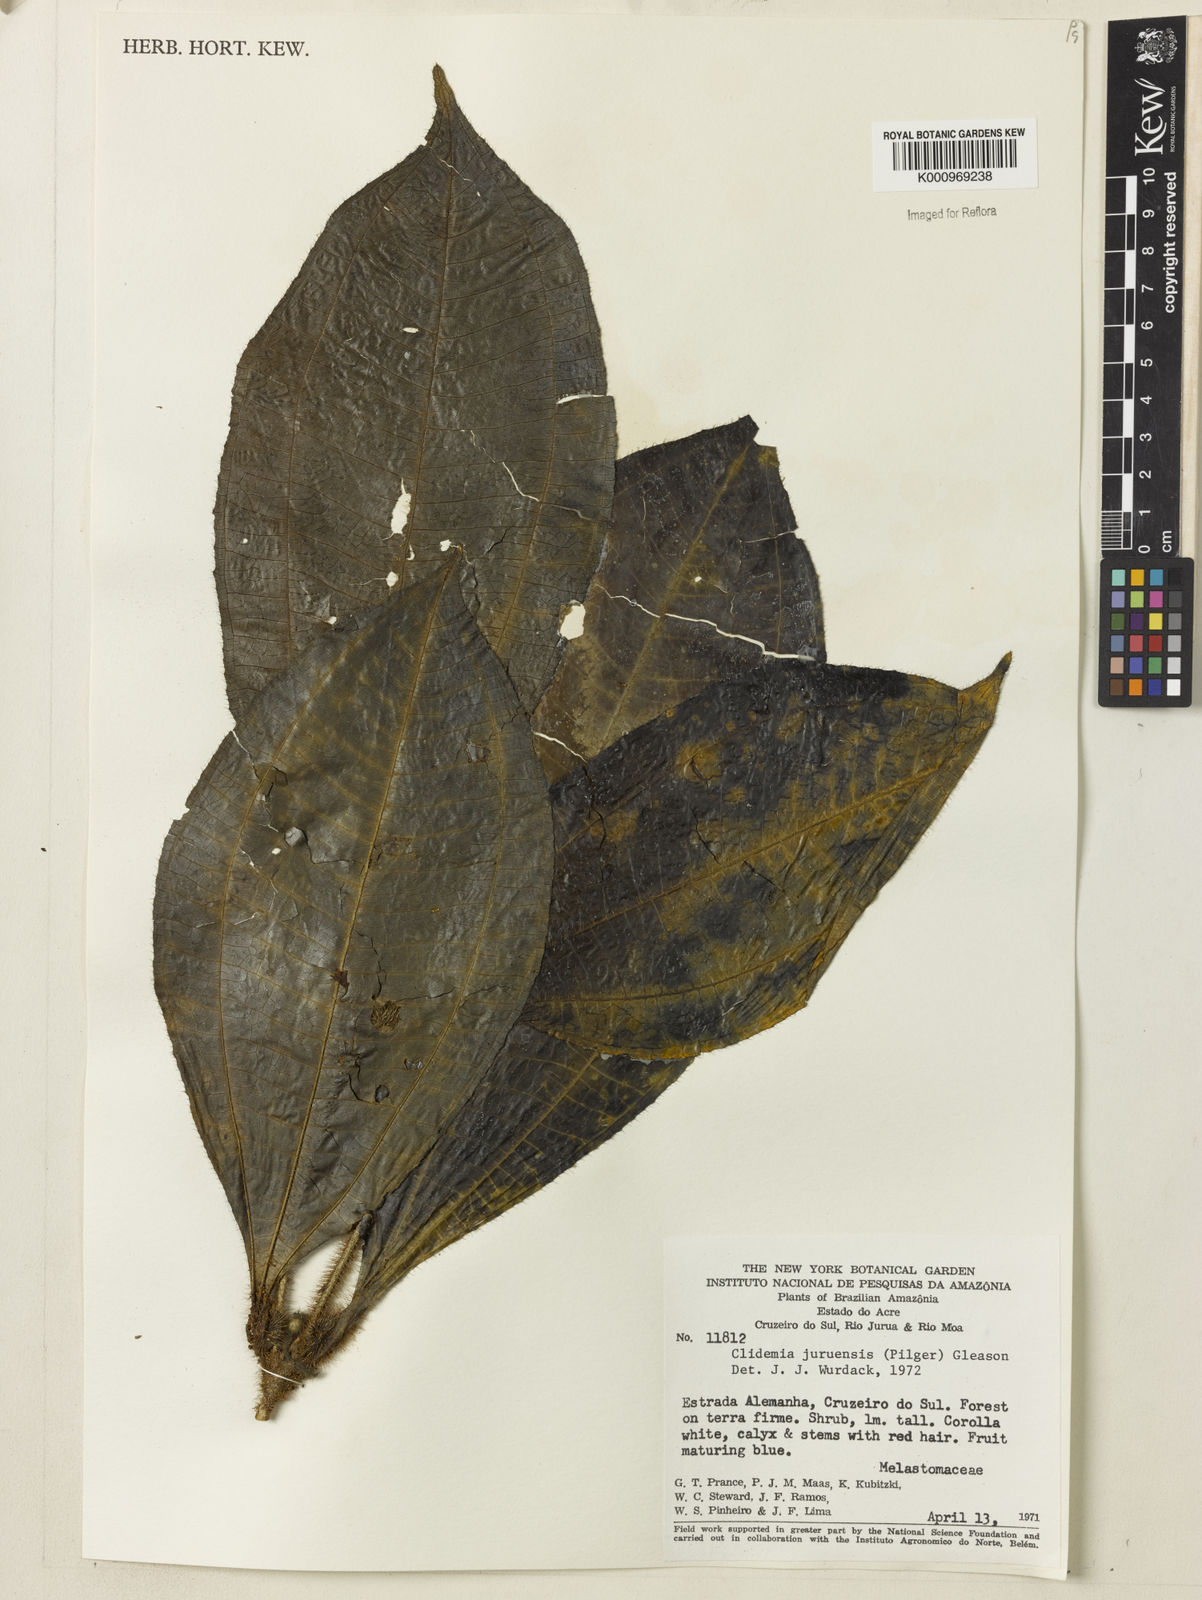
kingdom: Plantae
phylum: Tracheophyta
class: Magnoliopsida
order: Myrtales
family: Melastomataceae
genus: Miconia
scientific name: Miconia formicojuruensis
